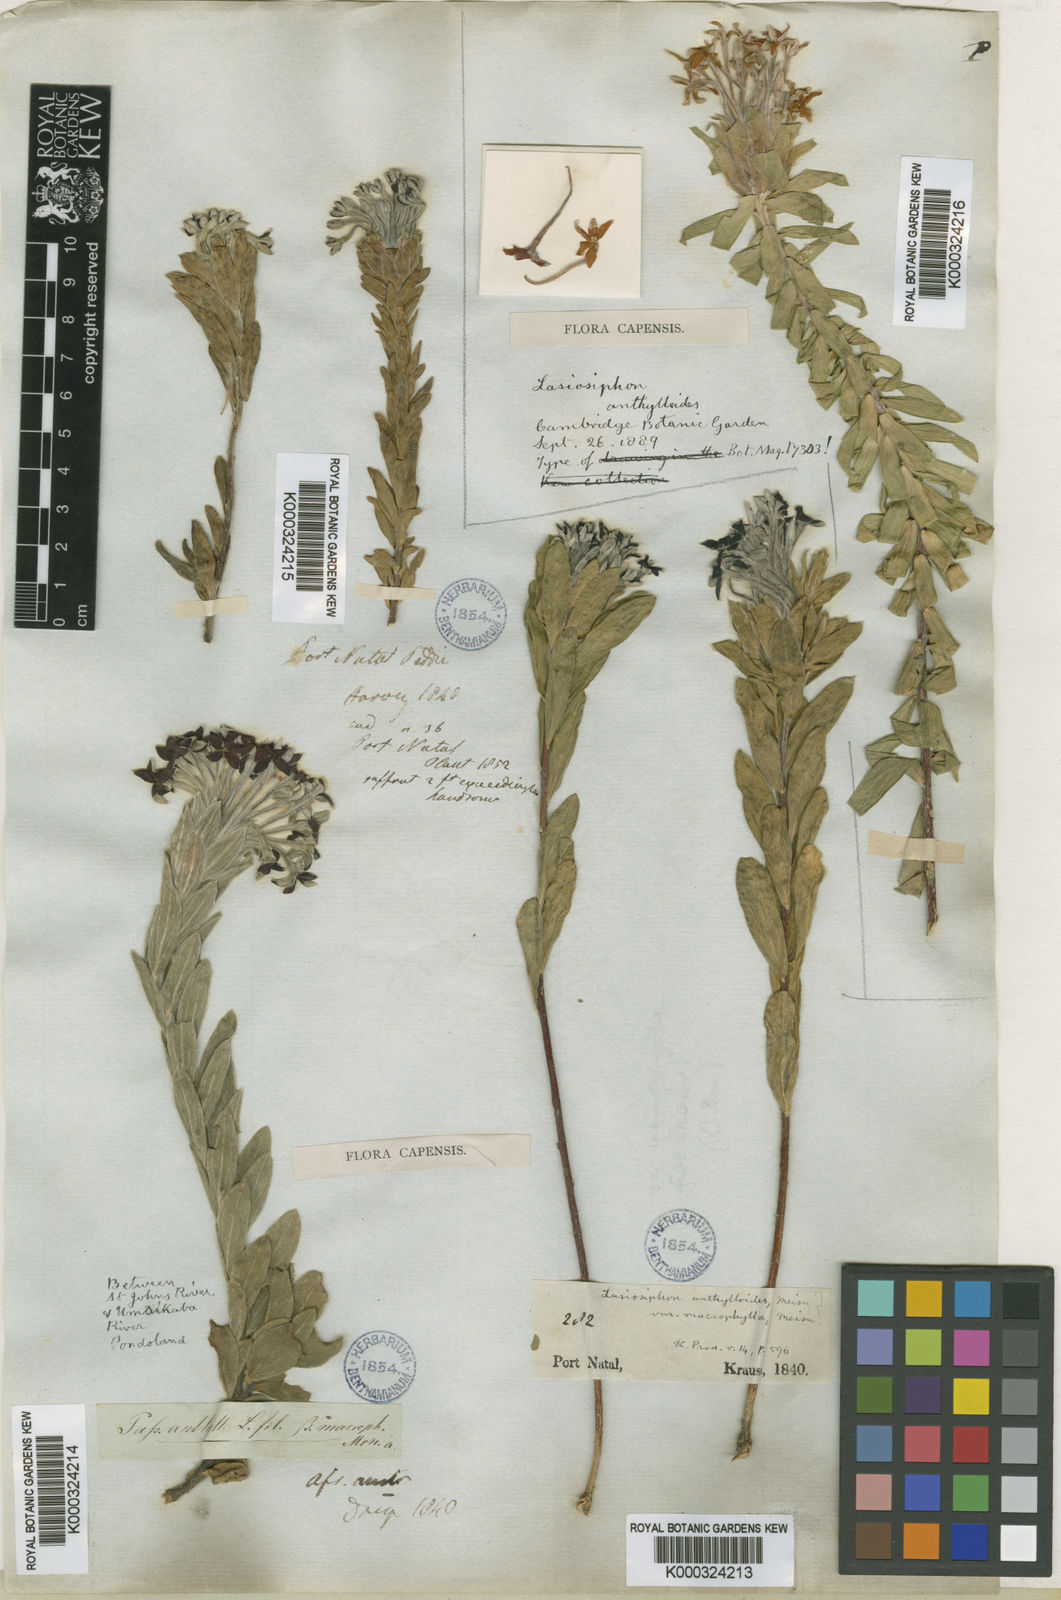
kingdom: Plantae
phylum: Tracheophyta
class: Magnoliopsida
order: Malvales
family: Thymelaeaceae
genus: Gnidia
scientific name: Gnidia anthylloides
